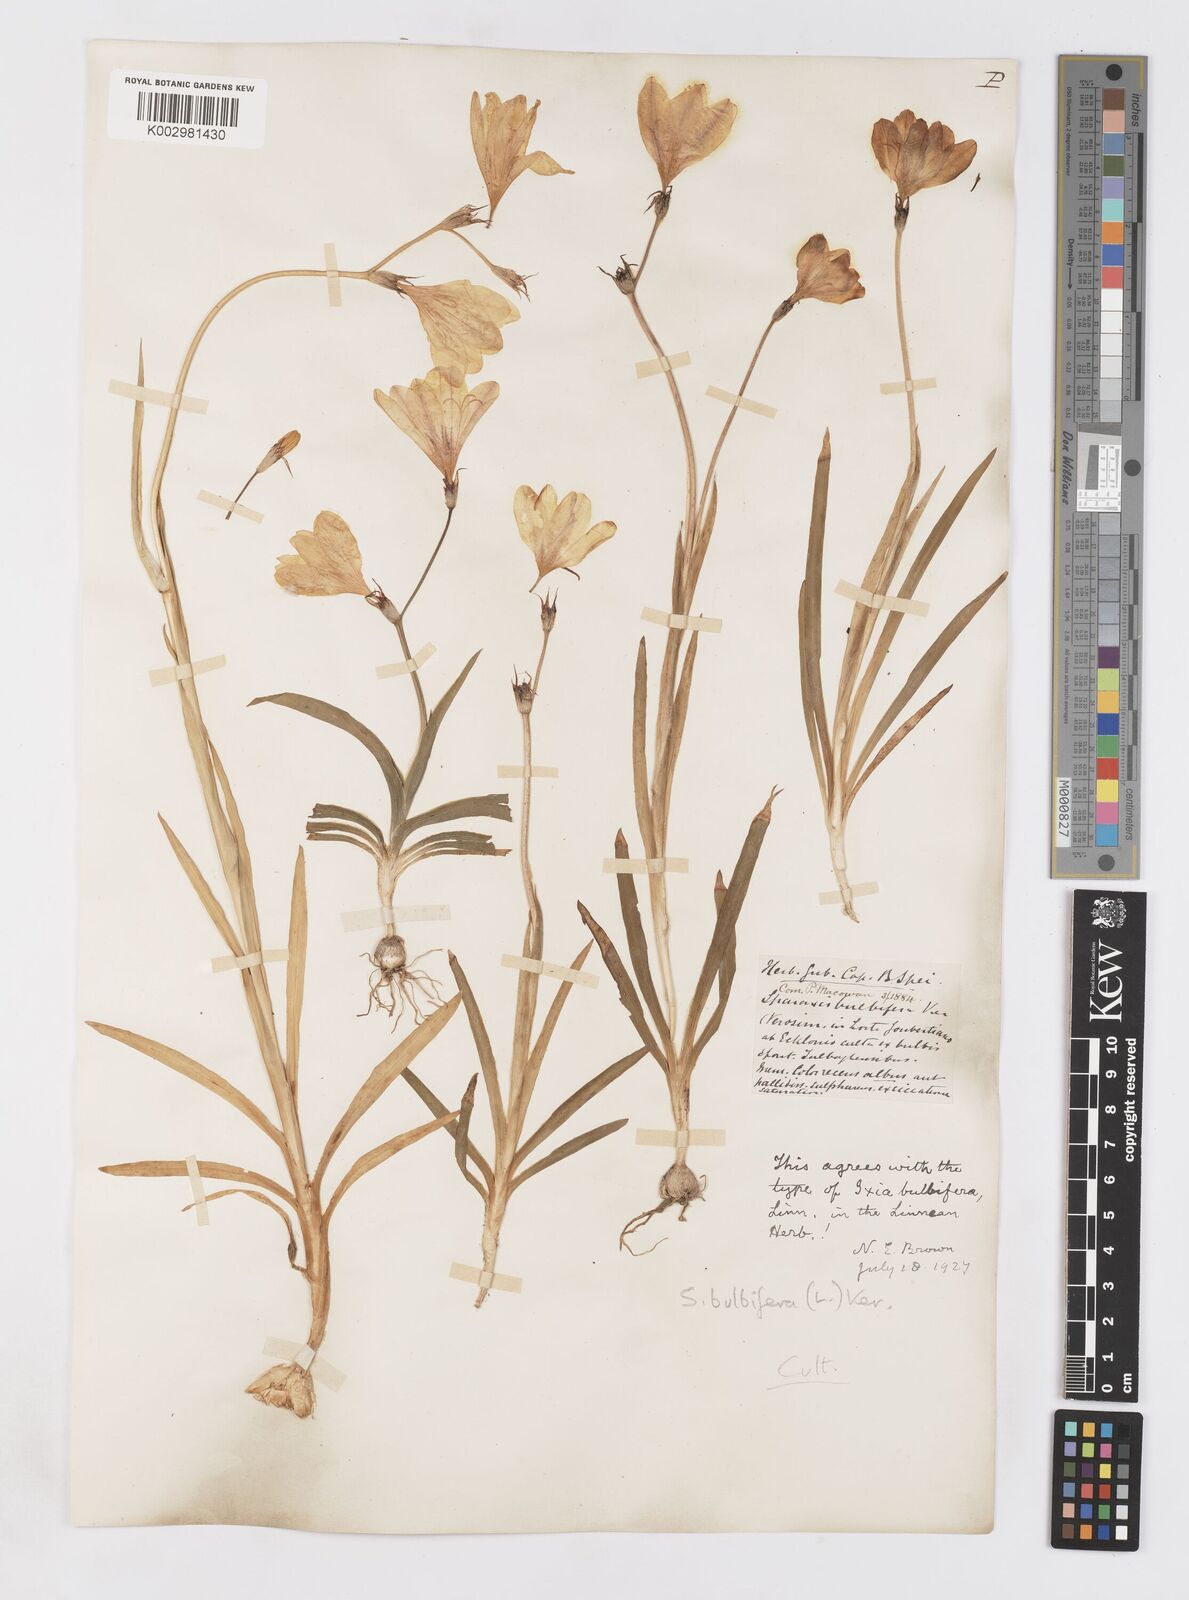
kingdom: Plantae
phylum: Tracheophyta
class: Liliopsida
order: Asparagales
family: Iridaceae
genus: Sparaxis
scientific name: Sparaxis bulbifera
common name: Harlequin-flower
